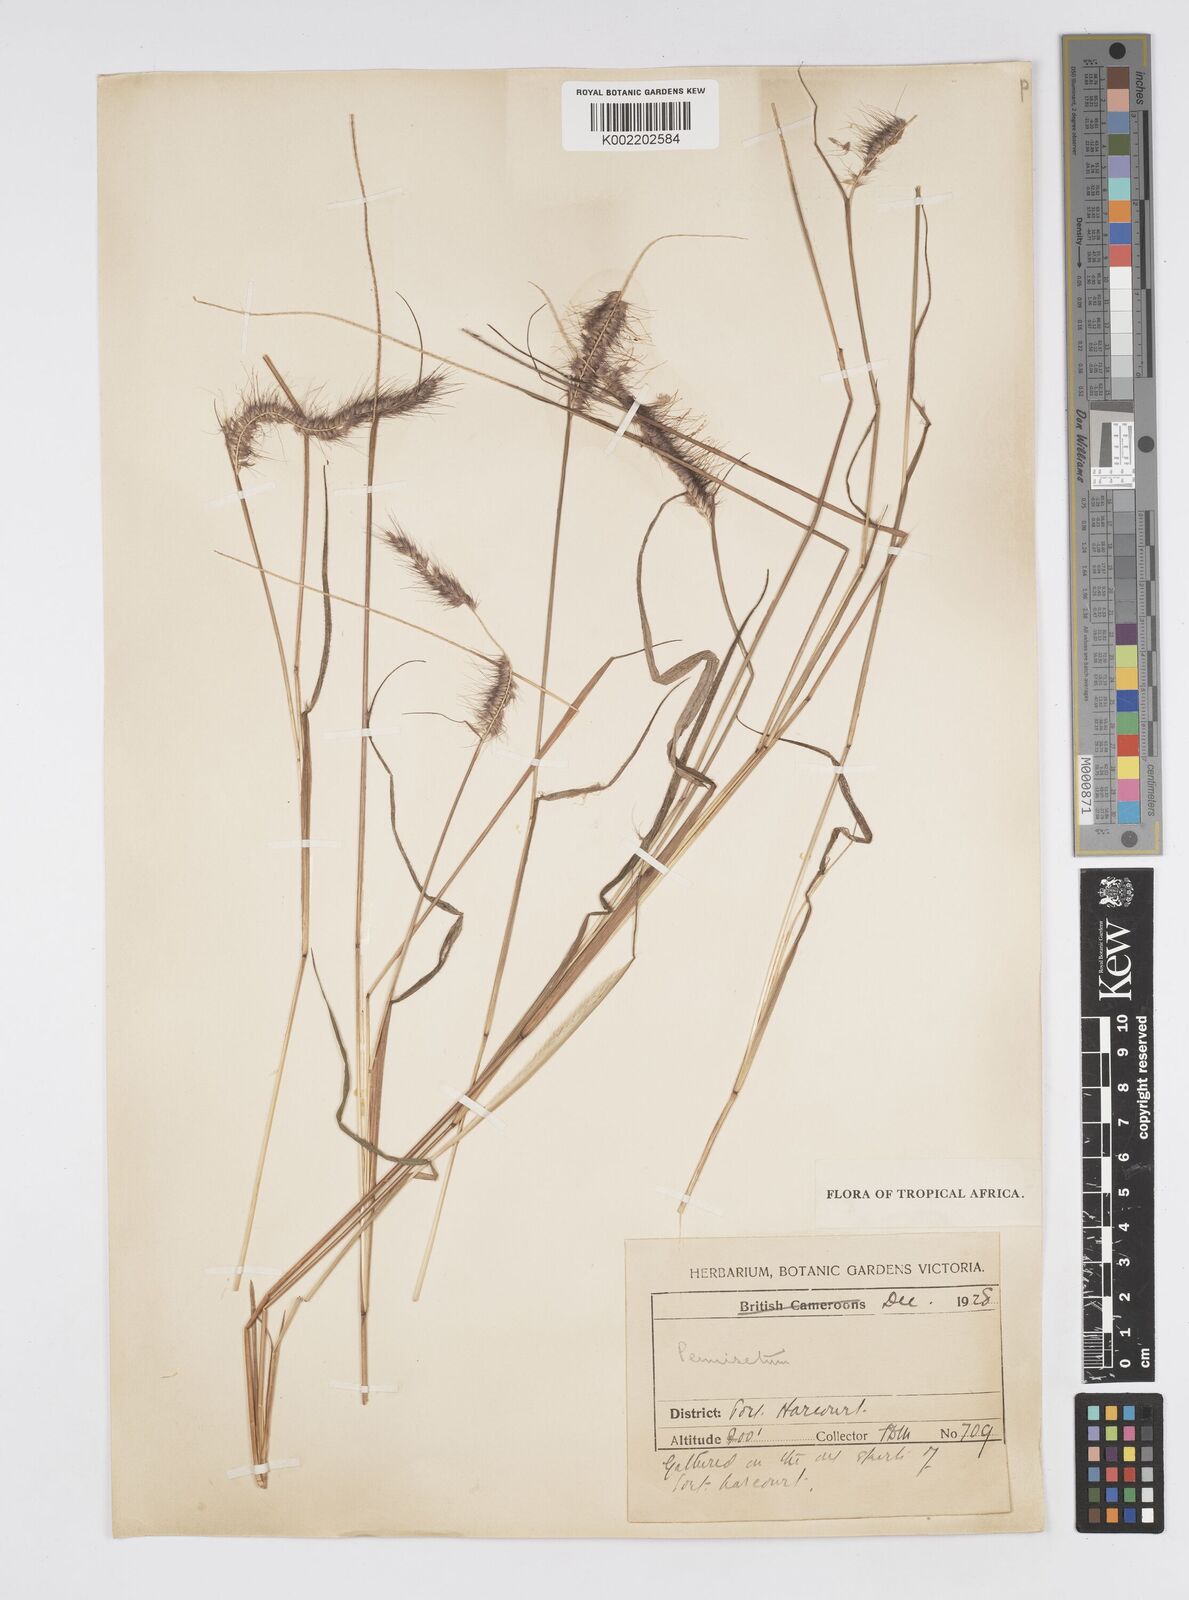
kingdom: Plantae
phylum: Tracheophyta
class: Liliopsida
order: Poales
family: Poaceae
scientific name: Poaceae
